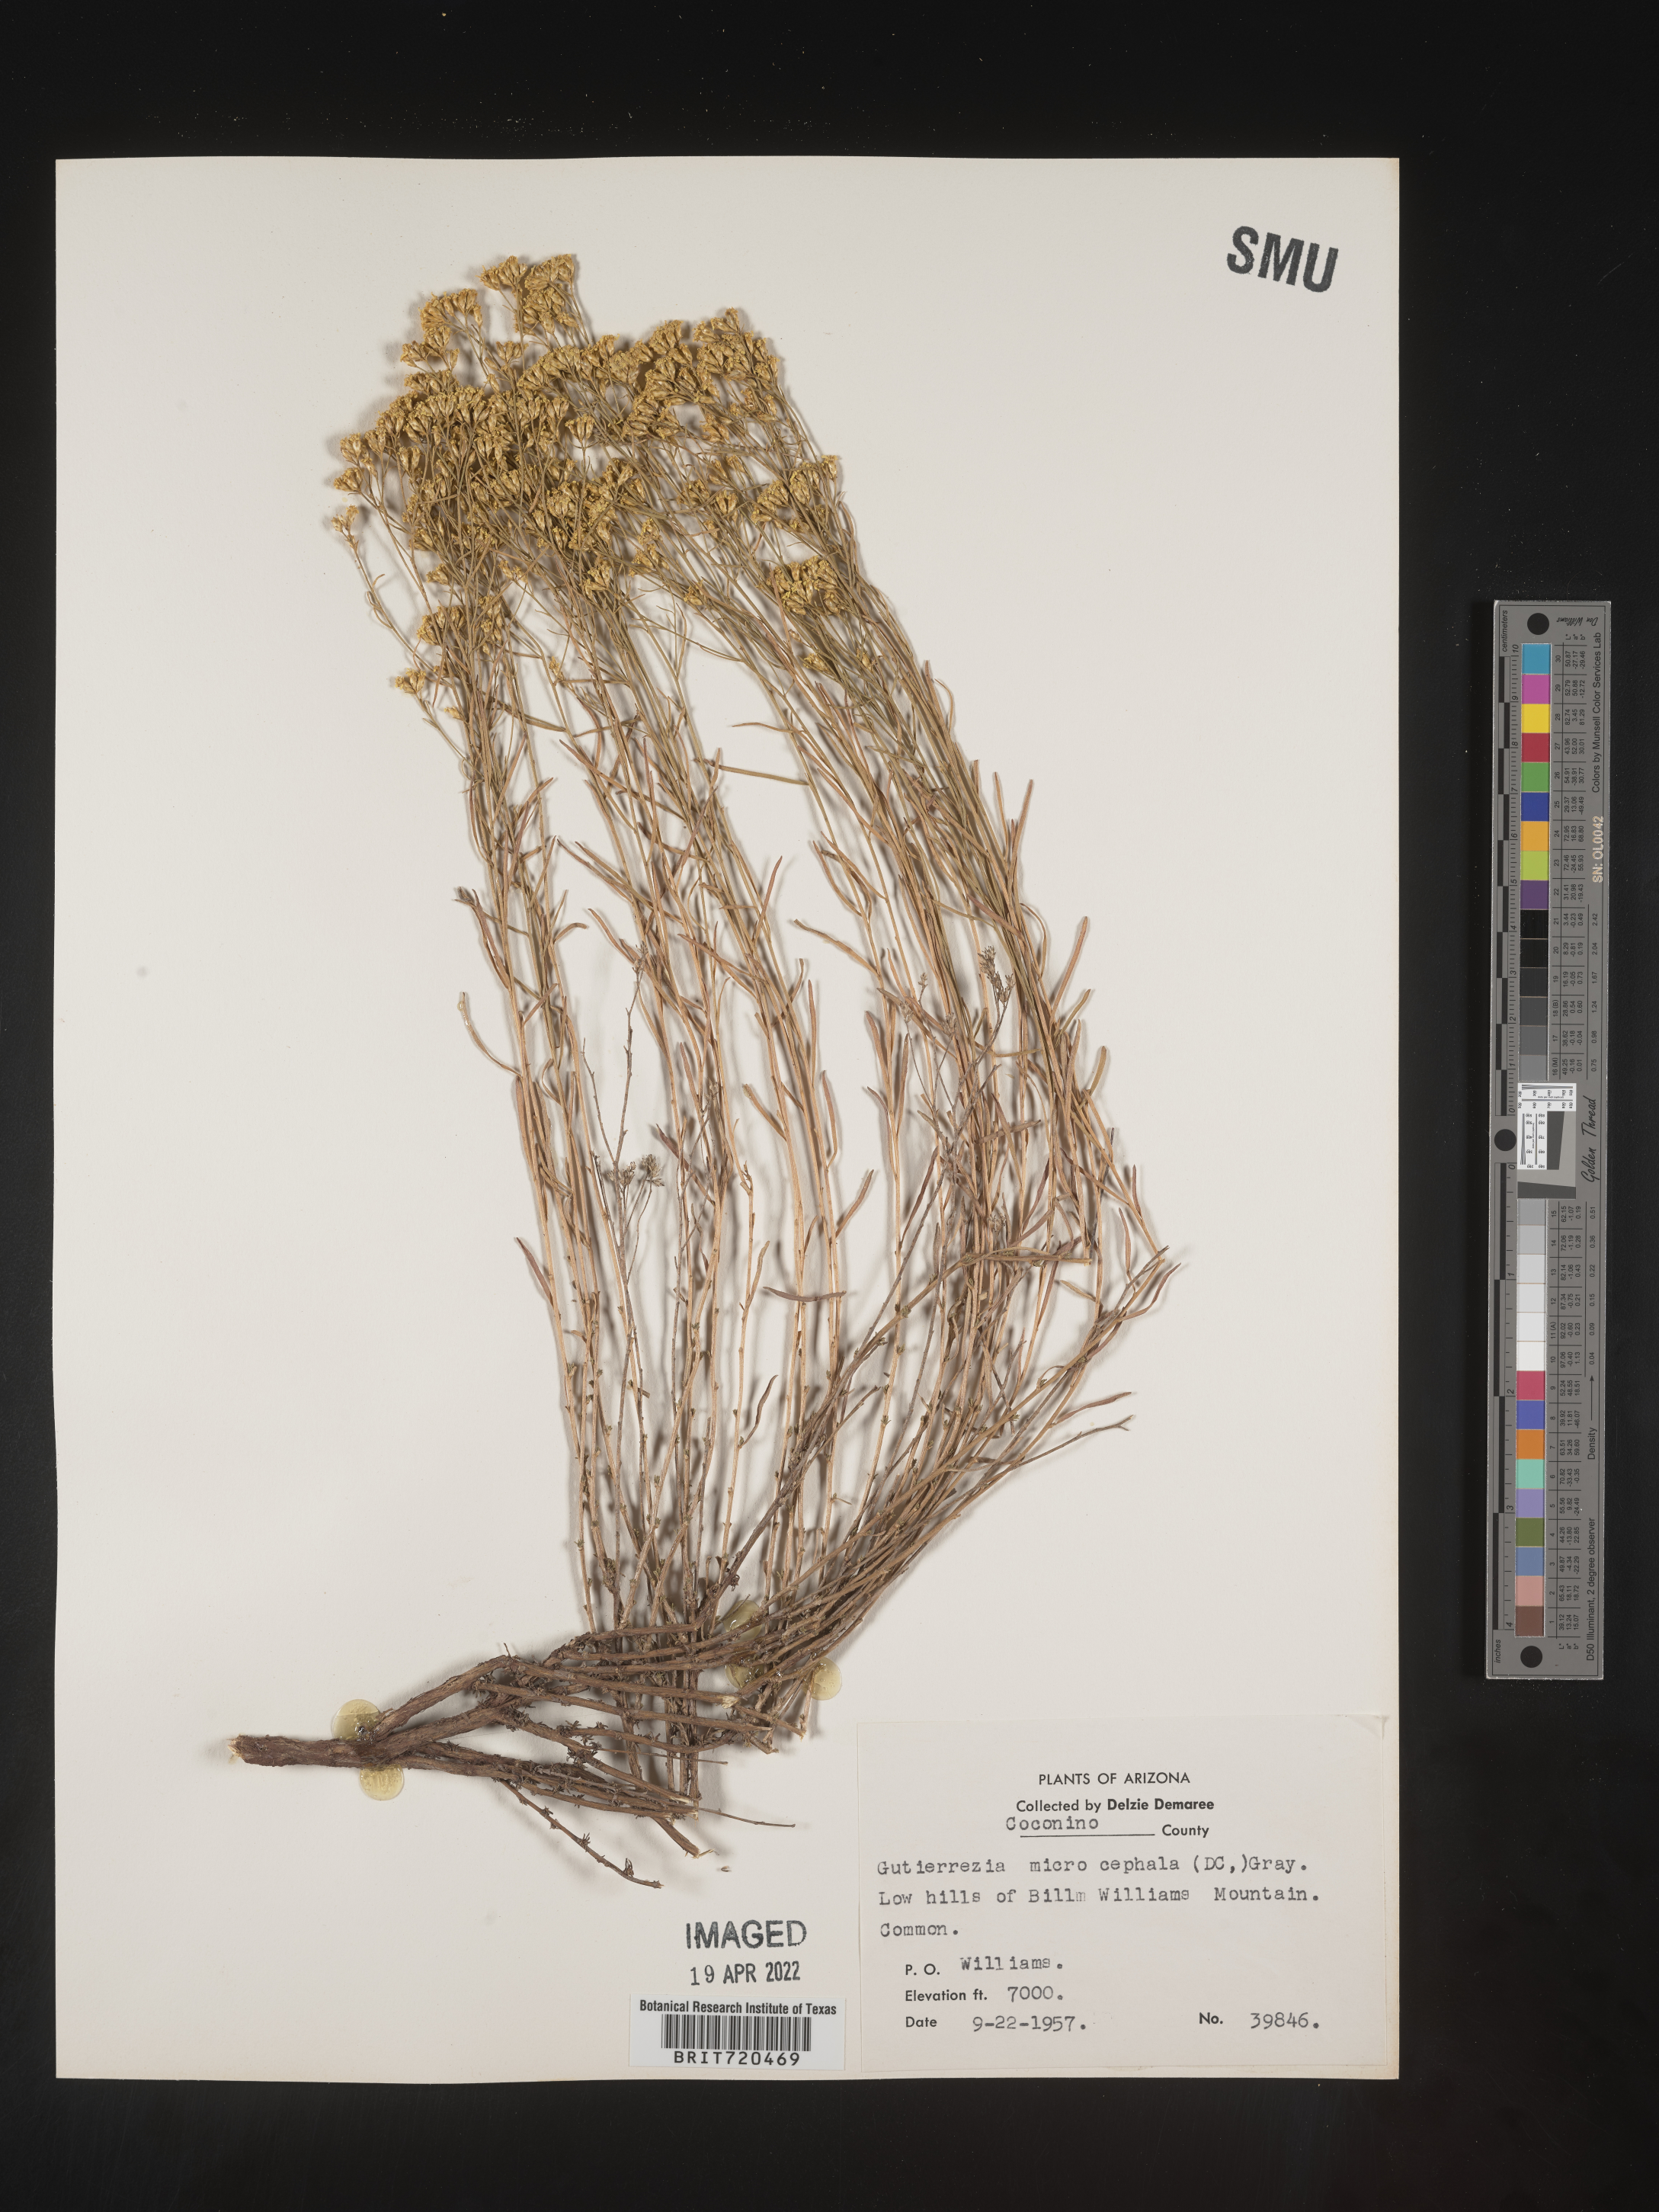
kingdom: Plantae
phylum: Tracheophyta
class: Magnoliopsida
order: Asterales
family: Asteraceae
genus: Gutierrezia
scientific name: Gutierrezia microcephala
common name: Thread snakeweed
